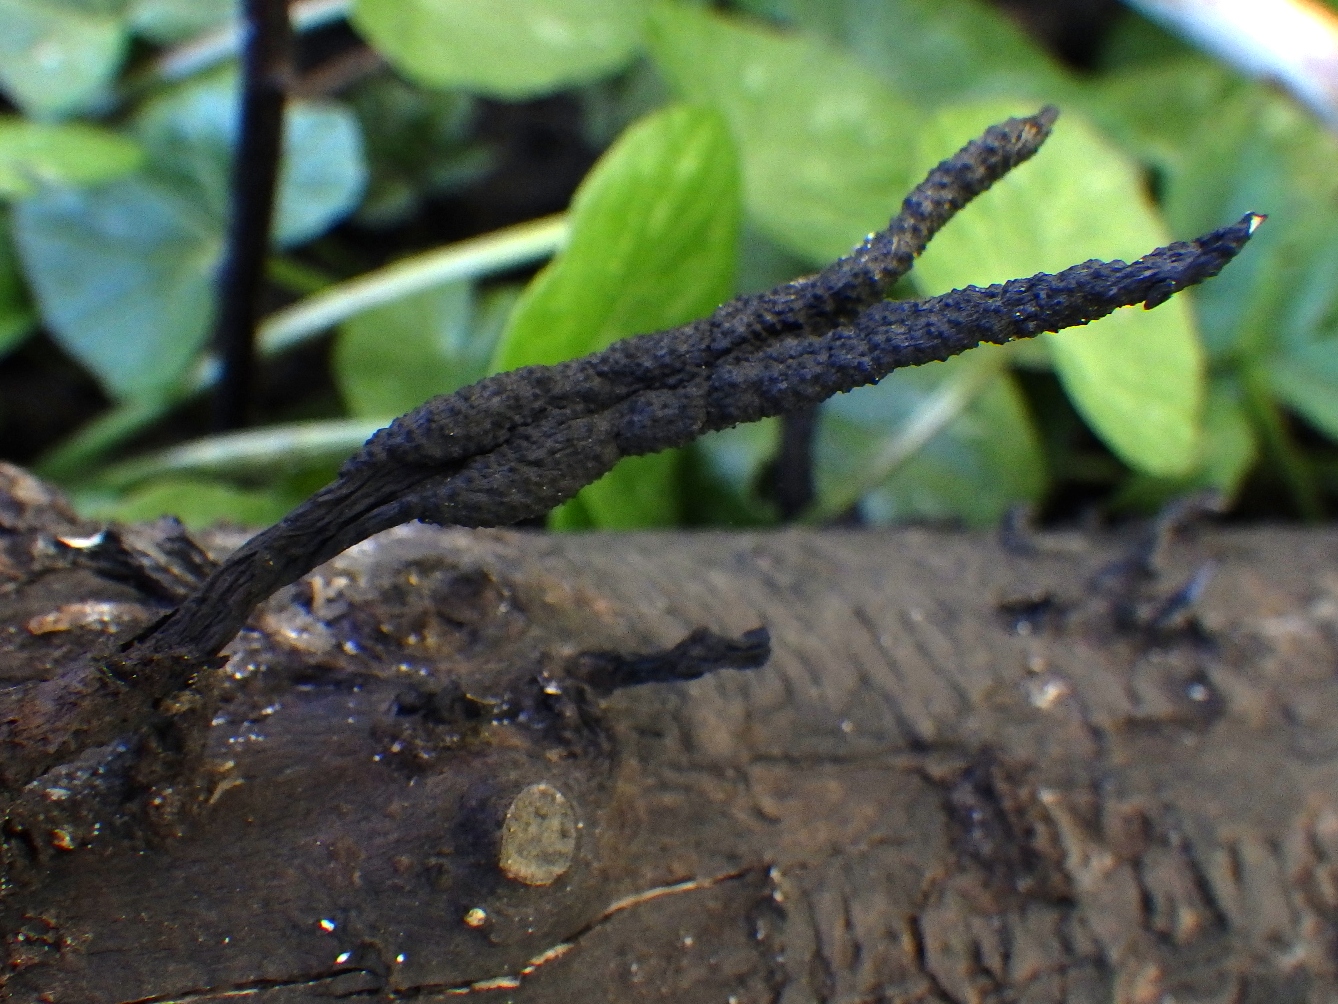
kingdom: Fungi
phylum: Ascomycota
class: Sordariomycetes
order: Xylariales
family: Xylariaceae
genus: Xylaria
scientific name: Xylaria hypoxylon
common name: grenet stødsvamp
